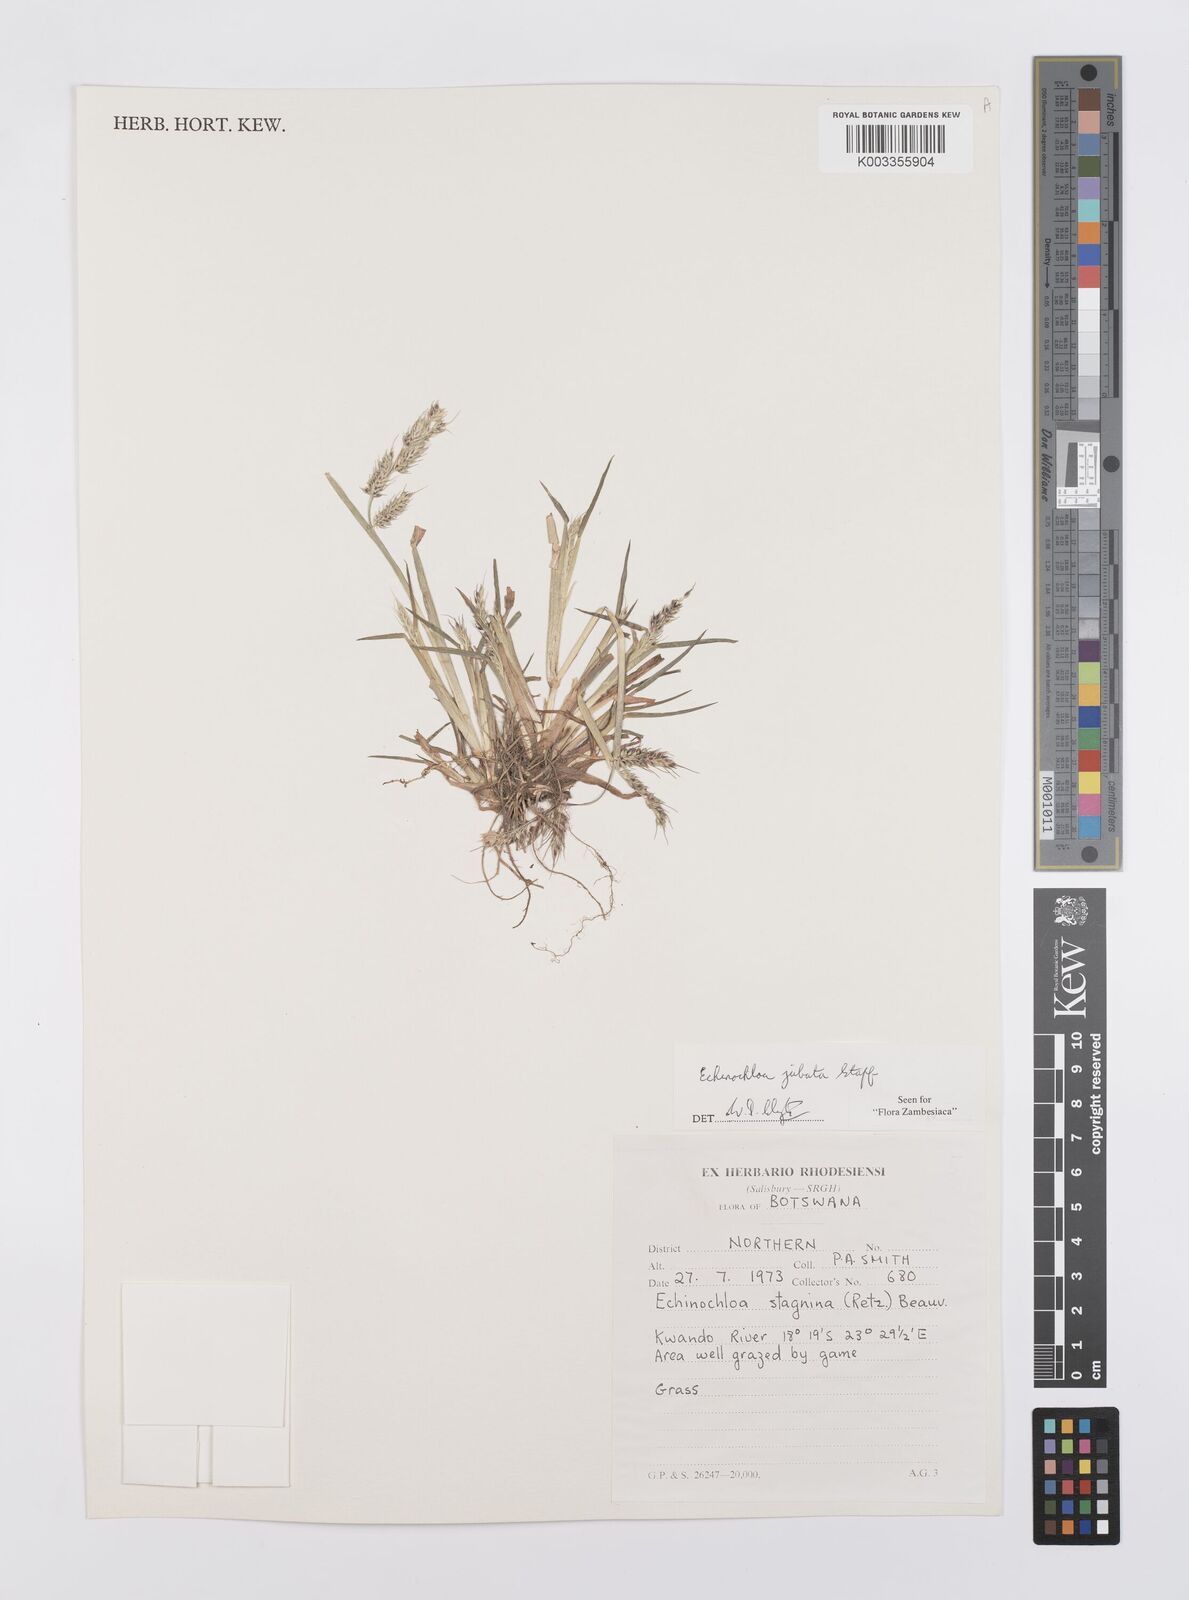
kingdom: Plantae
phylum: Tracheophyta
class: Liliopsida
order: Poales
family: Poaceae
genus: Echinochloa
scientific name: Echinochloa jubata
